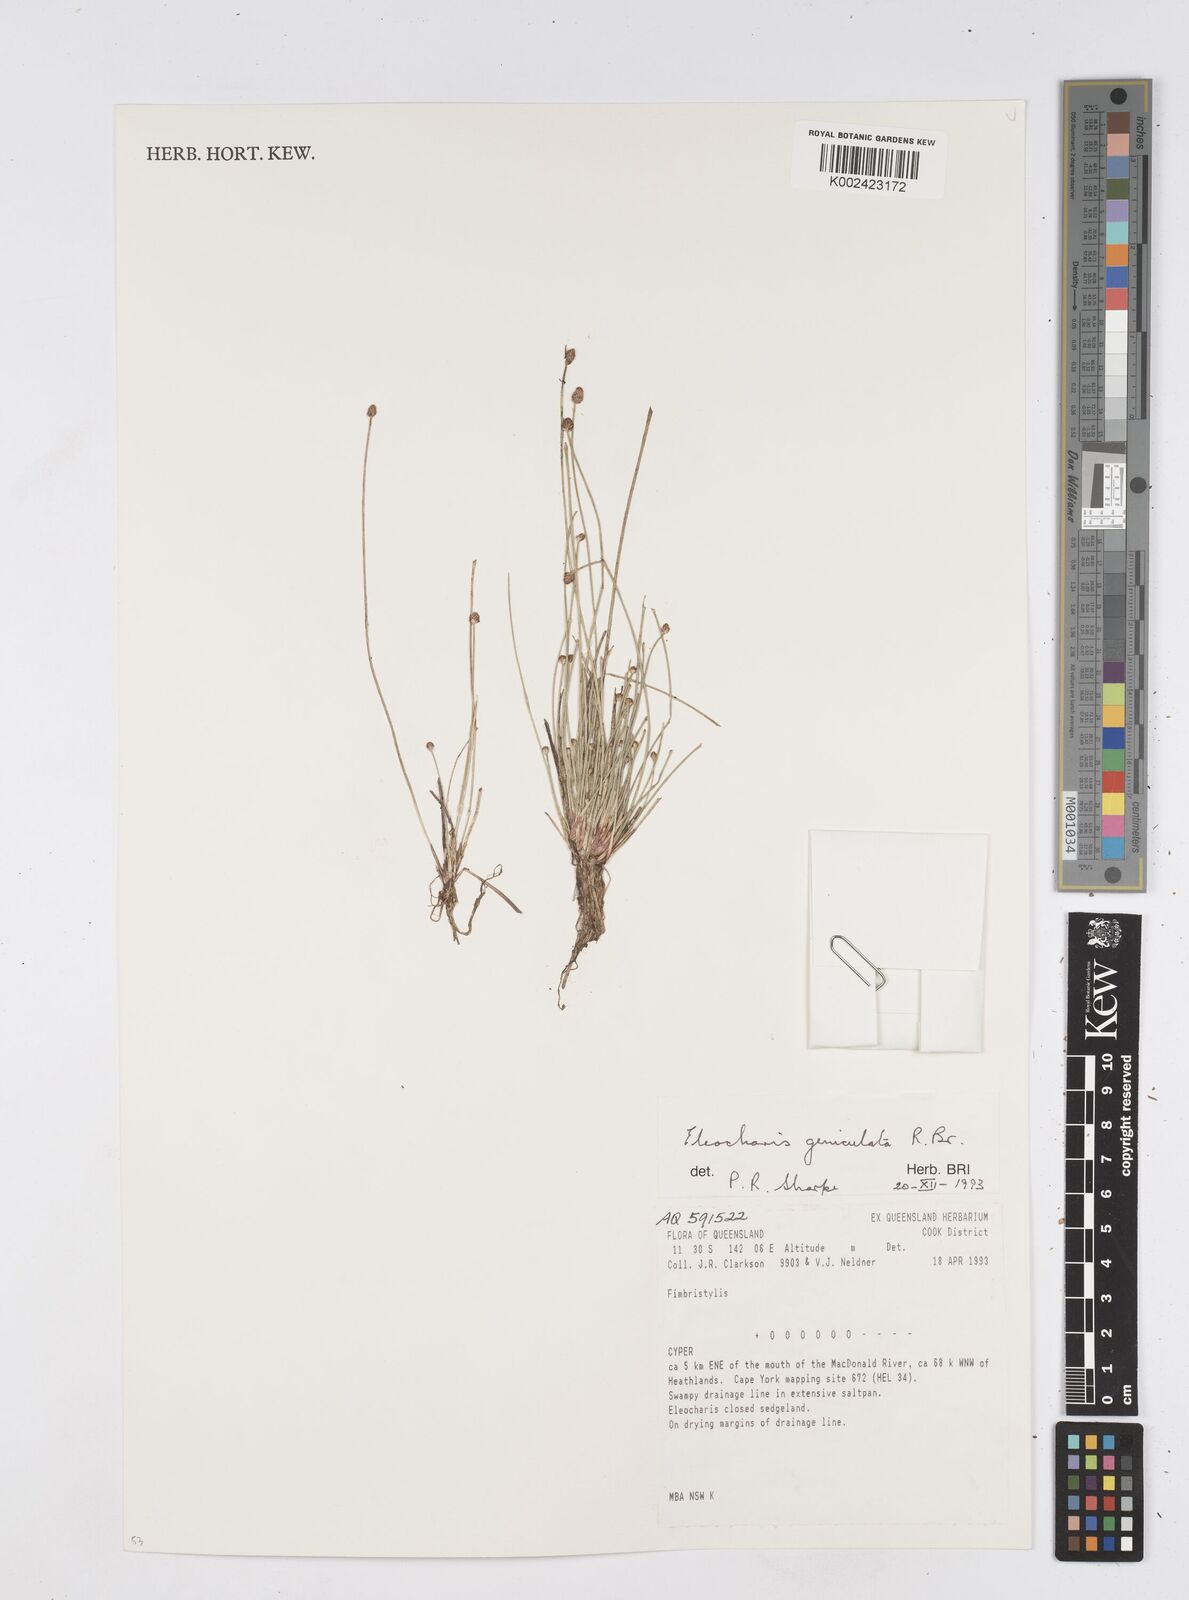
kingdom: Plantae
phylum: Tracheophyta
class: Liliopsida
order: Poales
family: Cyperaceae
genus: Eleocharis
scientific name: Eleocharis geniculata
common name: Canada spikesedge
